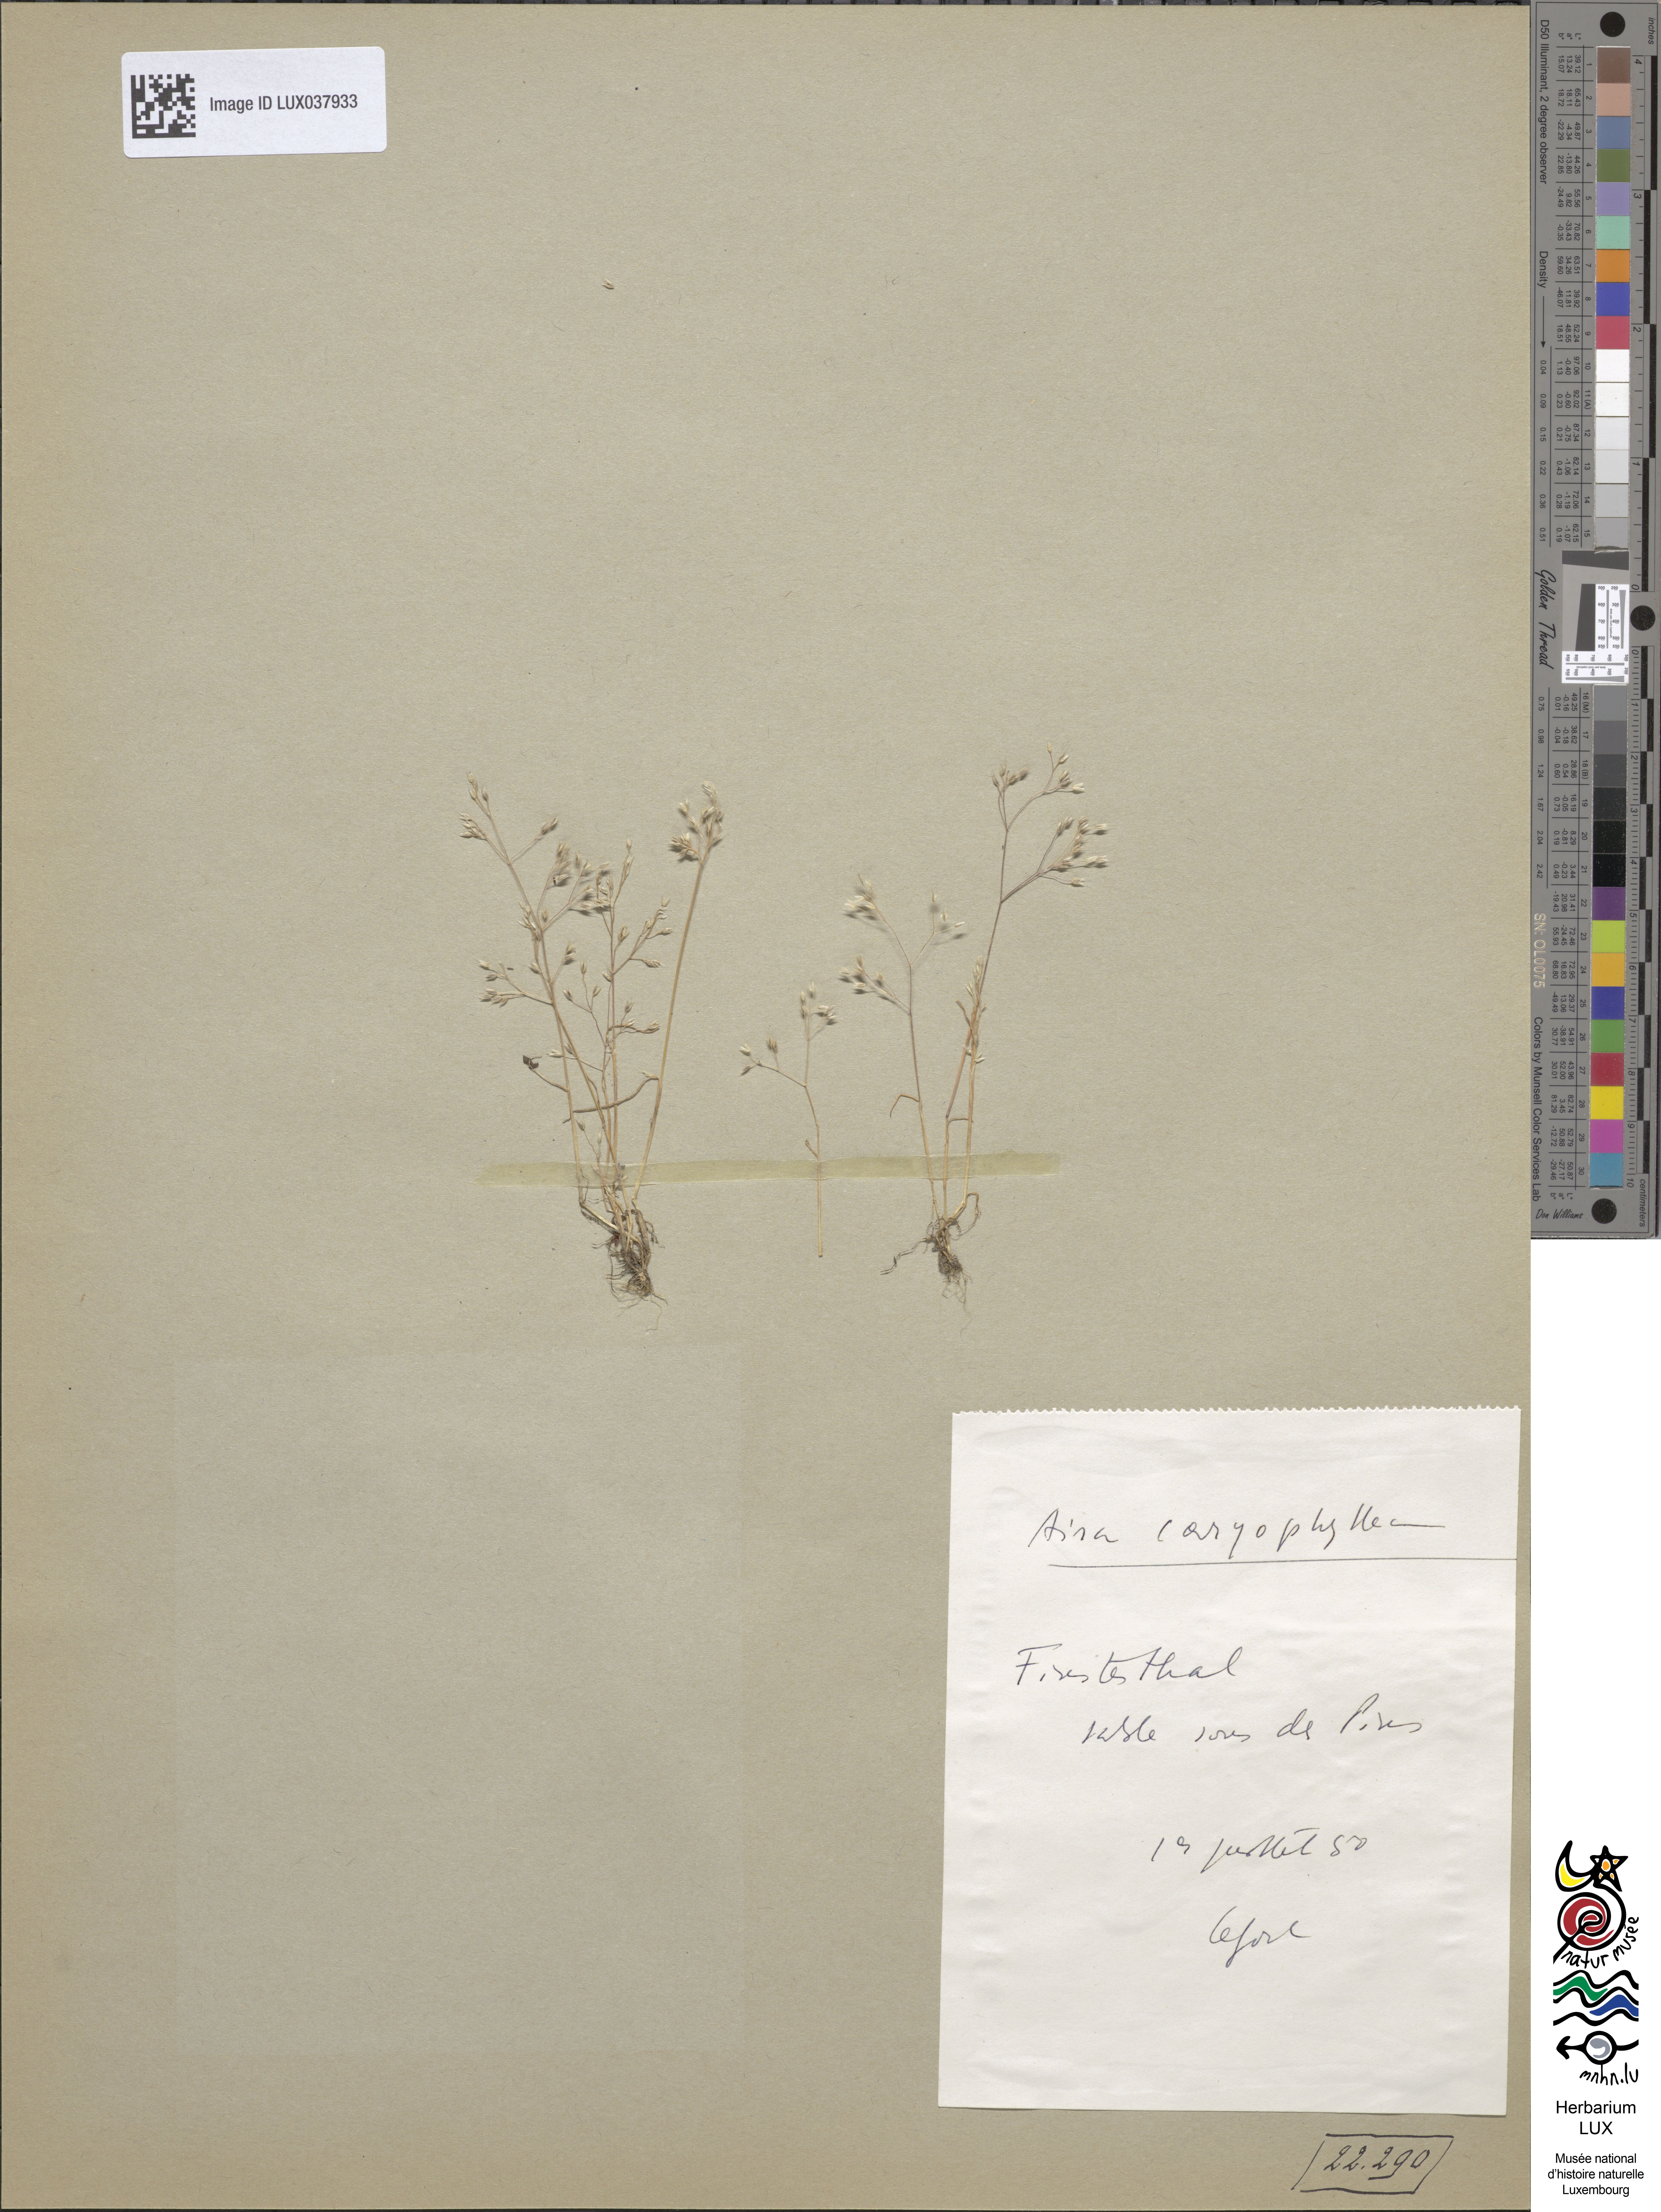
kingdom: Plantae
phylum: Tracheophyta
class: Liliopsida
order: Poales
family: Poaceae
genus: Aira
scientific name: Aira caryophyllea
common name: Silver hairgrass
